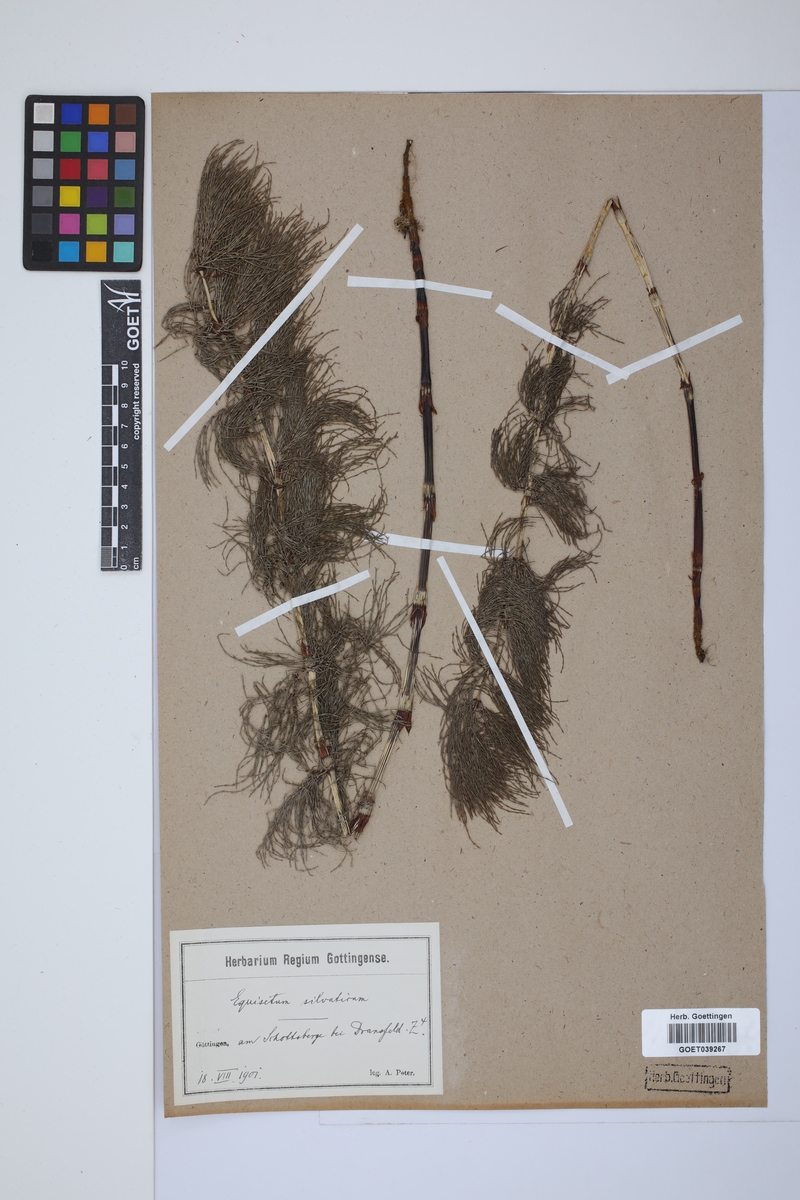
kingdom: Plantae
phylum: Tracheophyta
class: Polypodiopsida
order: Equisetales
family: Equisetaceae
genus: Equisetum
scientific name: Equisetum sylvaticum
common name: Wood horsetail
